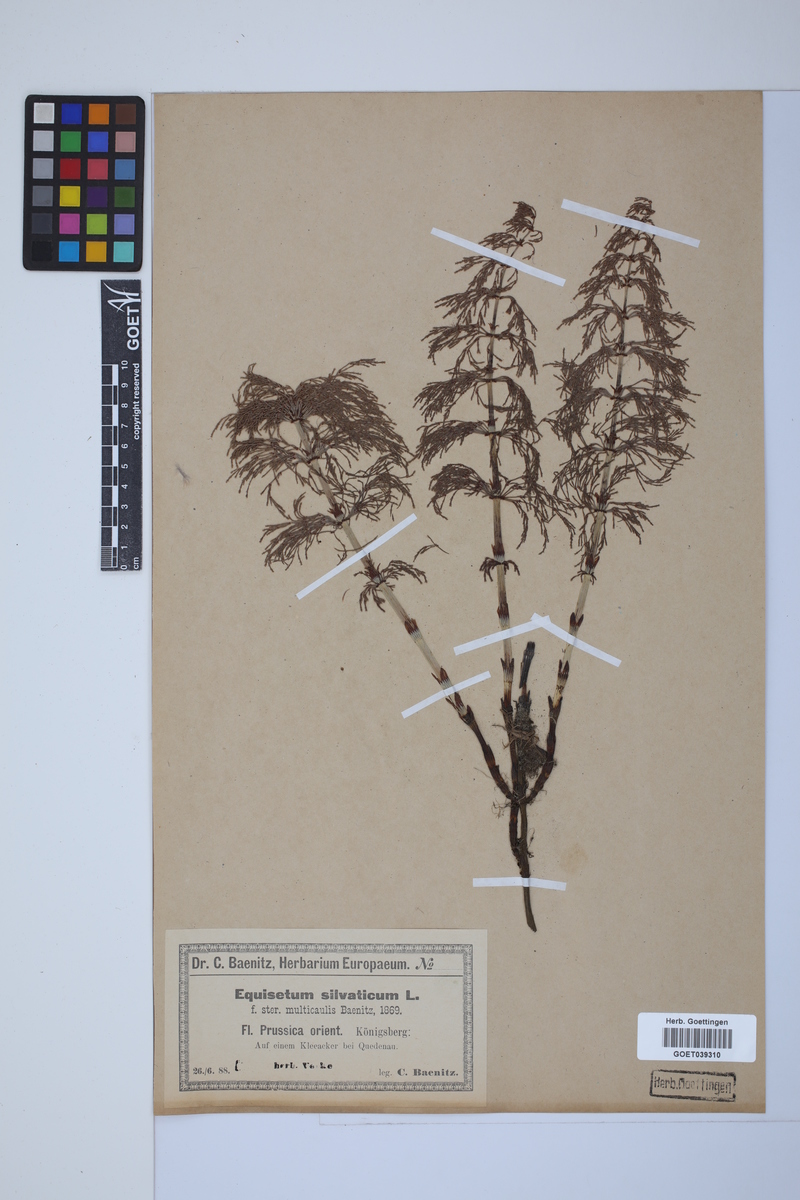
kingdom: Plantae
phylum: Tracheophyta
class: Polypodiopsida
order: Equisetales
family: Equisetaceae
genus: Equisetum
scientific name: Equisetum sylvaticum
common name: Wood horsetail
